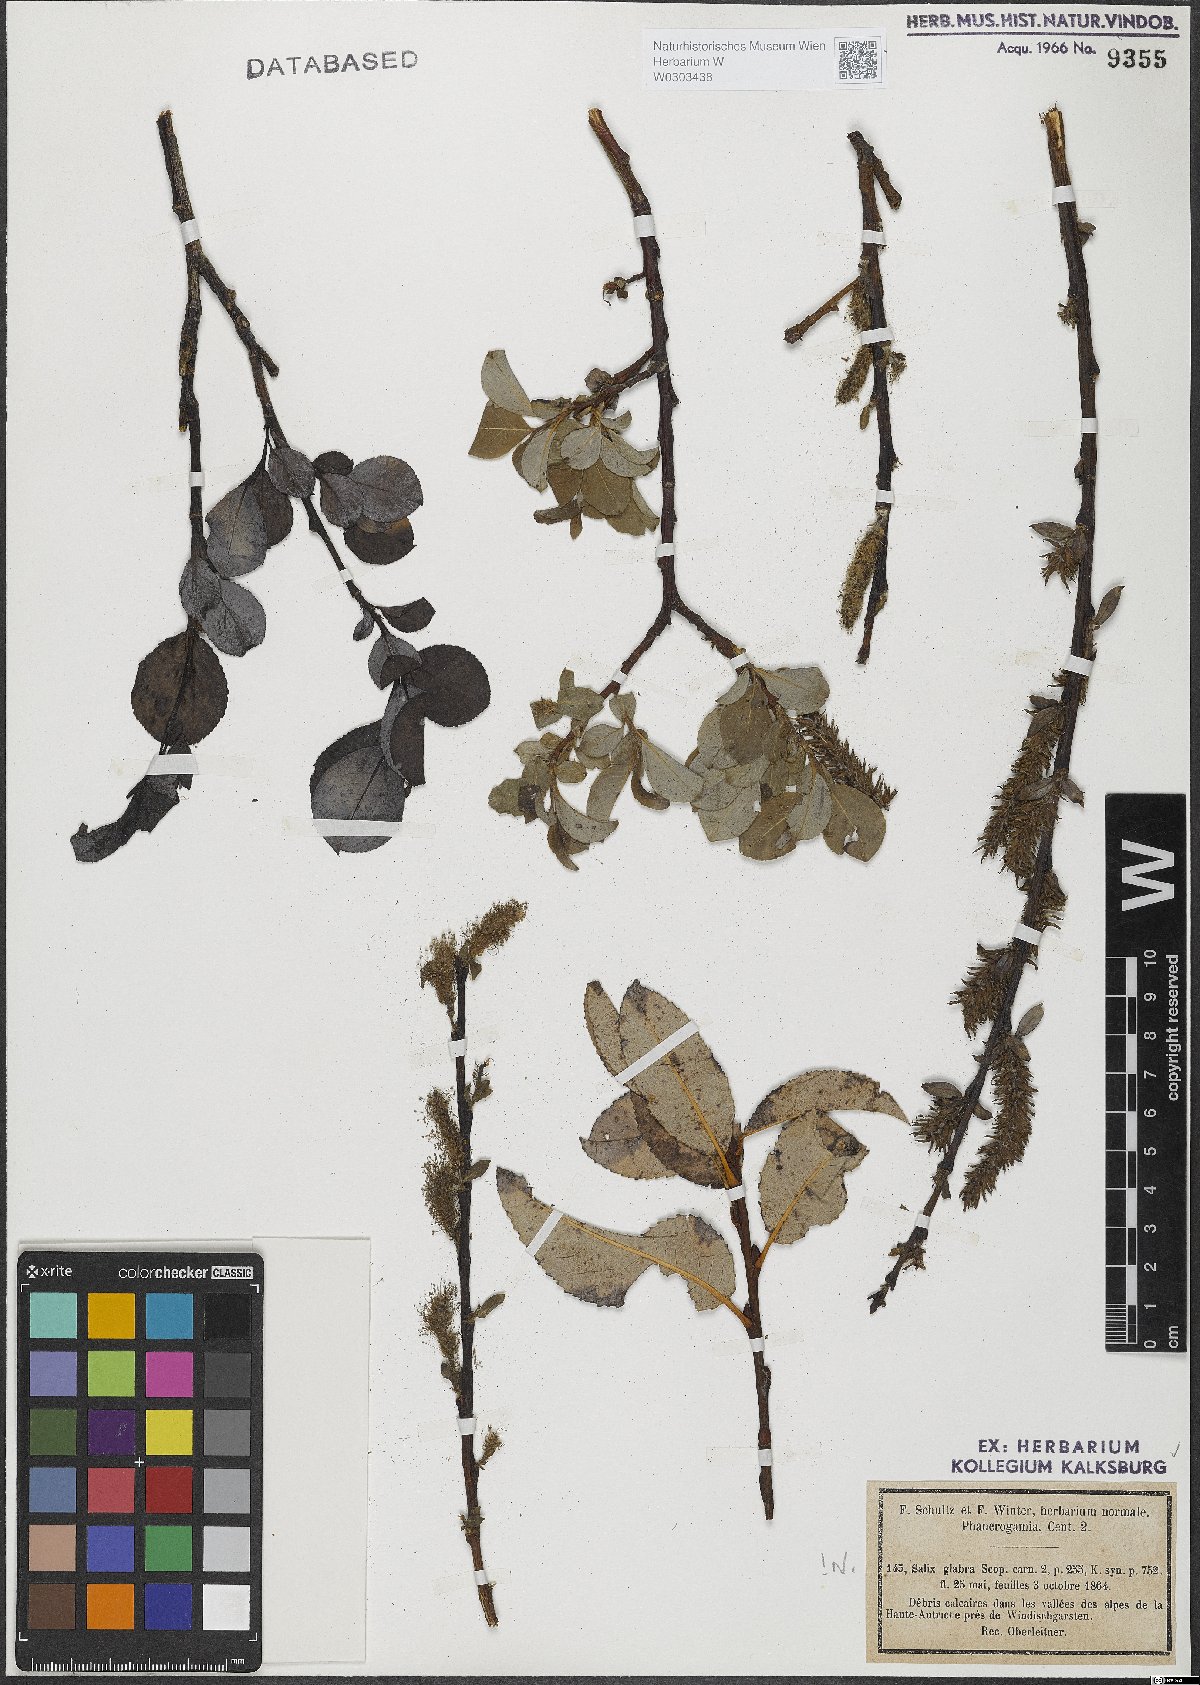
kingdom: Plantae
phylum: Tracheophyta
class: Magnoliopsida
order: Malpighiales
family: Salicaceae
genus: Salix
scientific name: Salix glabra
